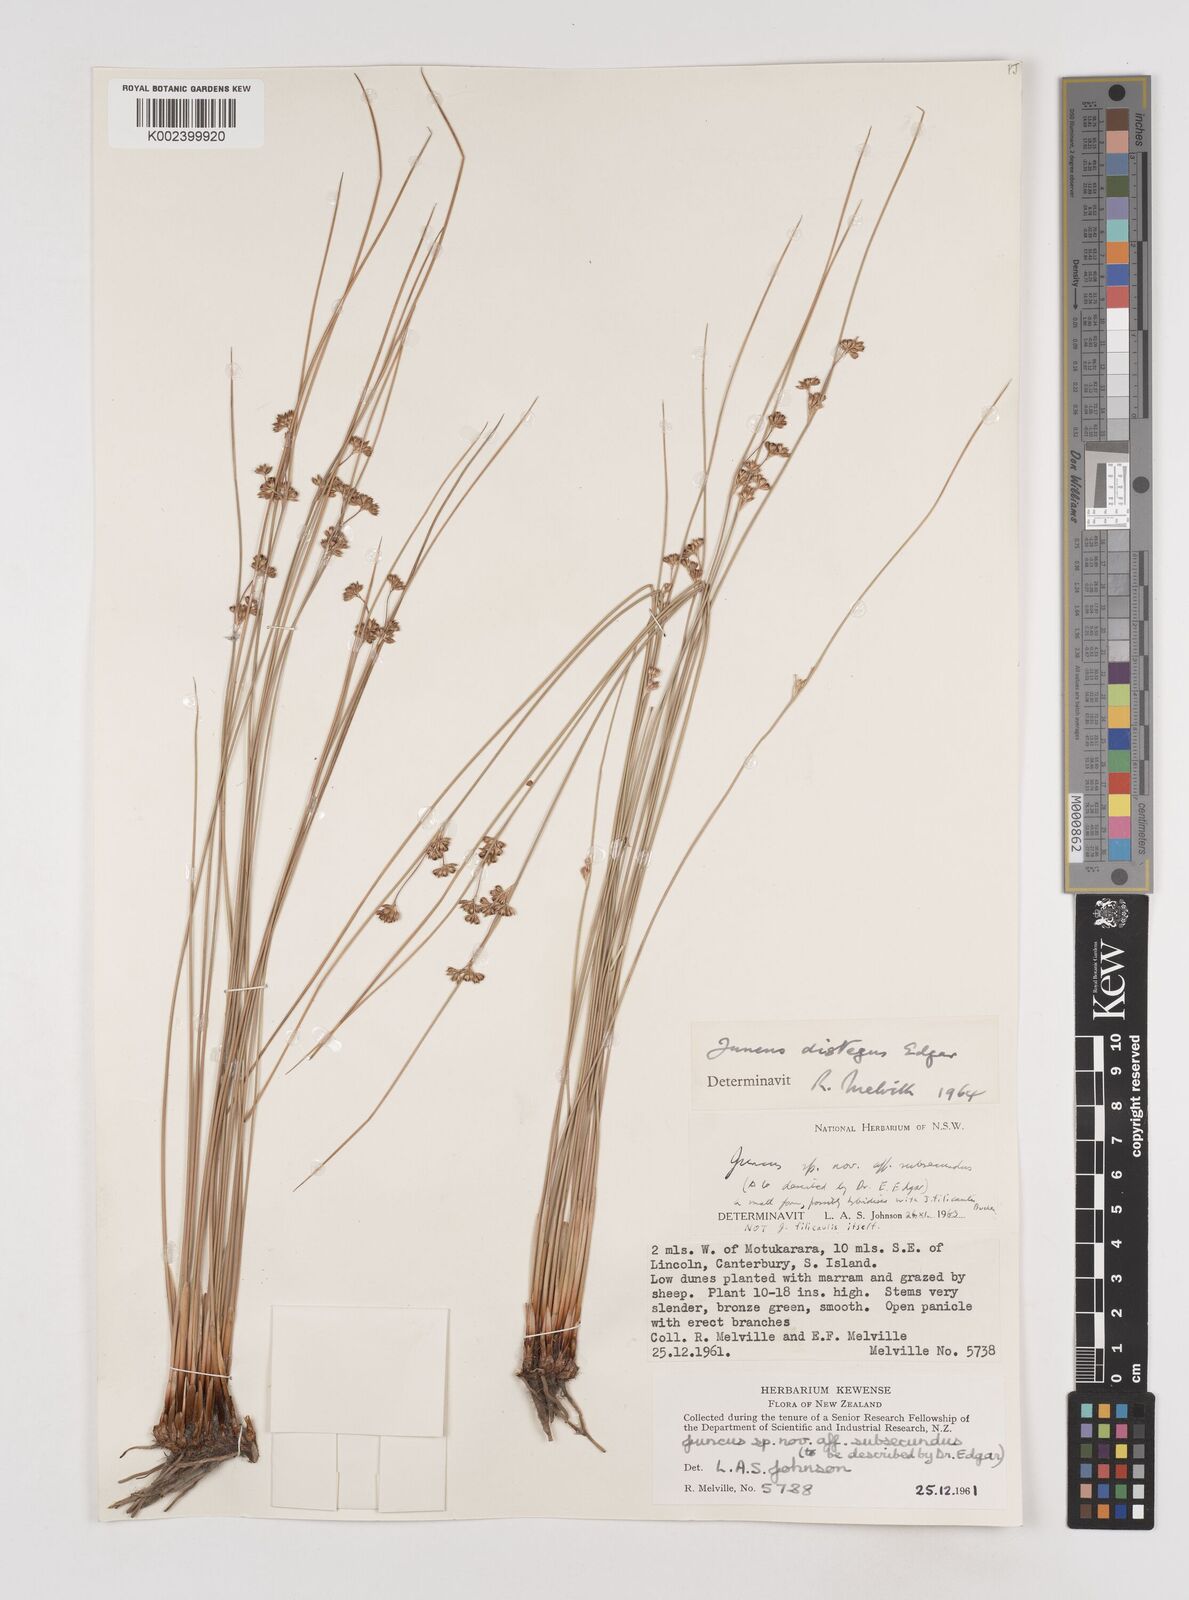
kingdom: Plantae
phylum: Tracheophyta
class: Liliopsida
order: Poales
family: Juncaceae
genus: Juncus
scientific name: Juncus distegus
